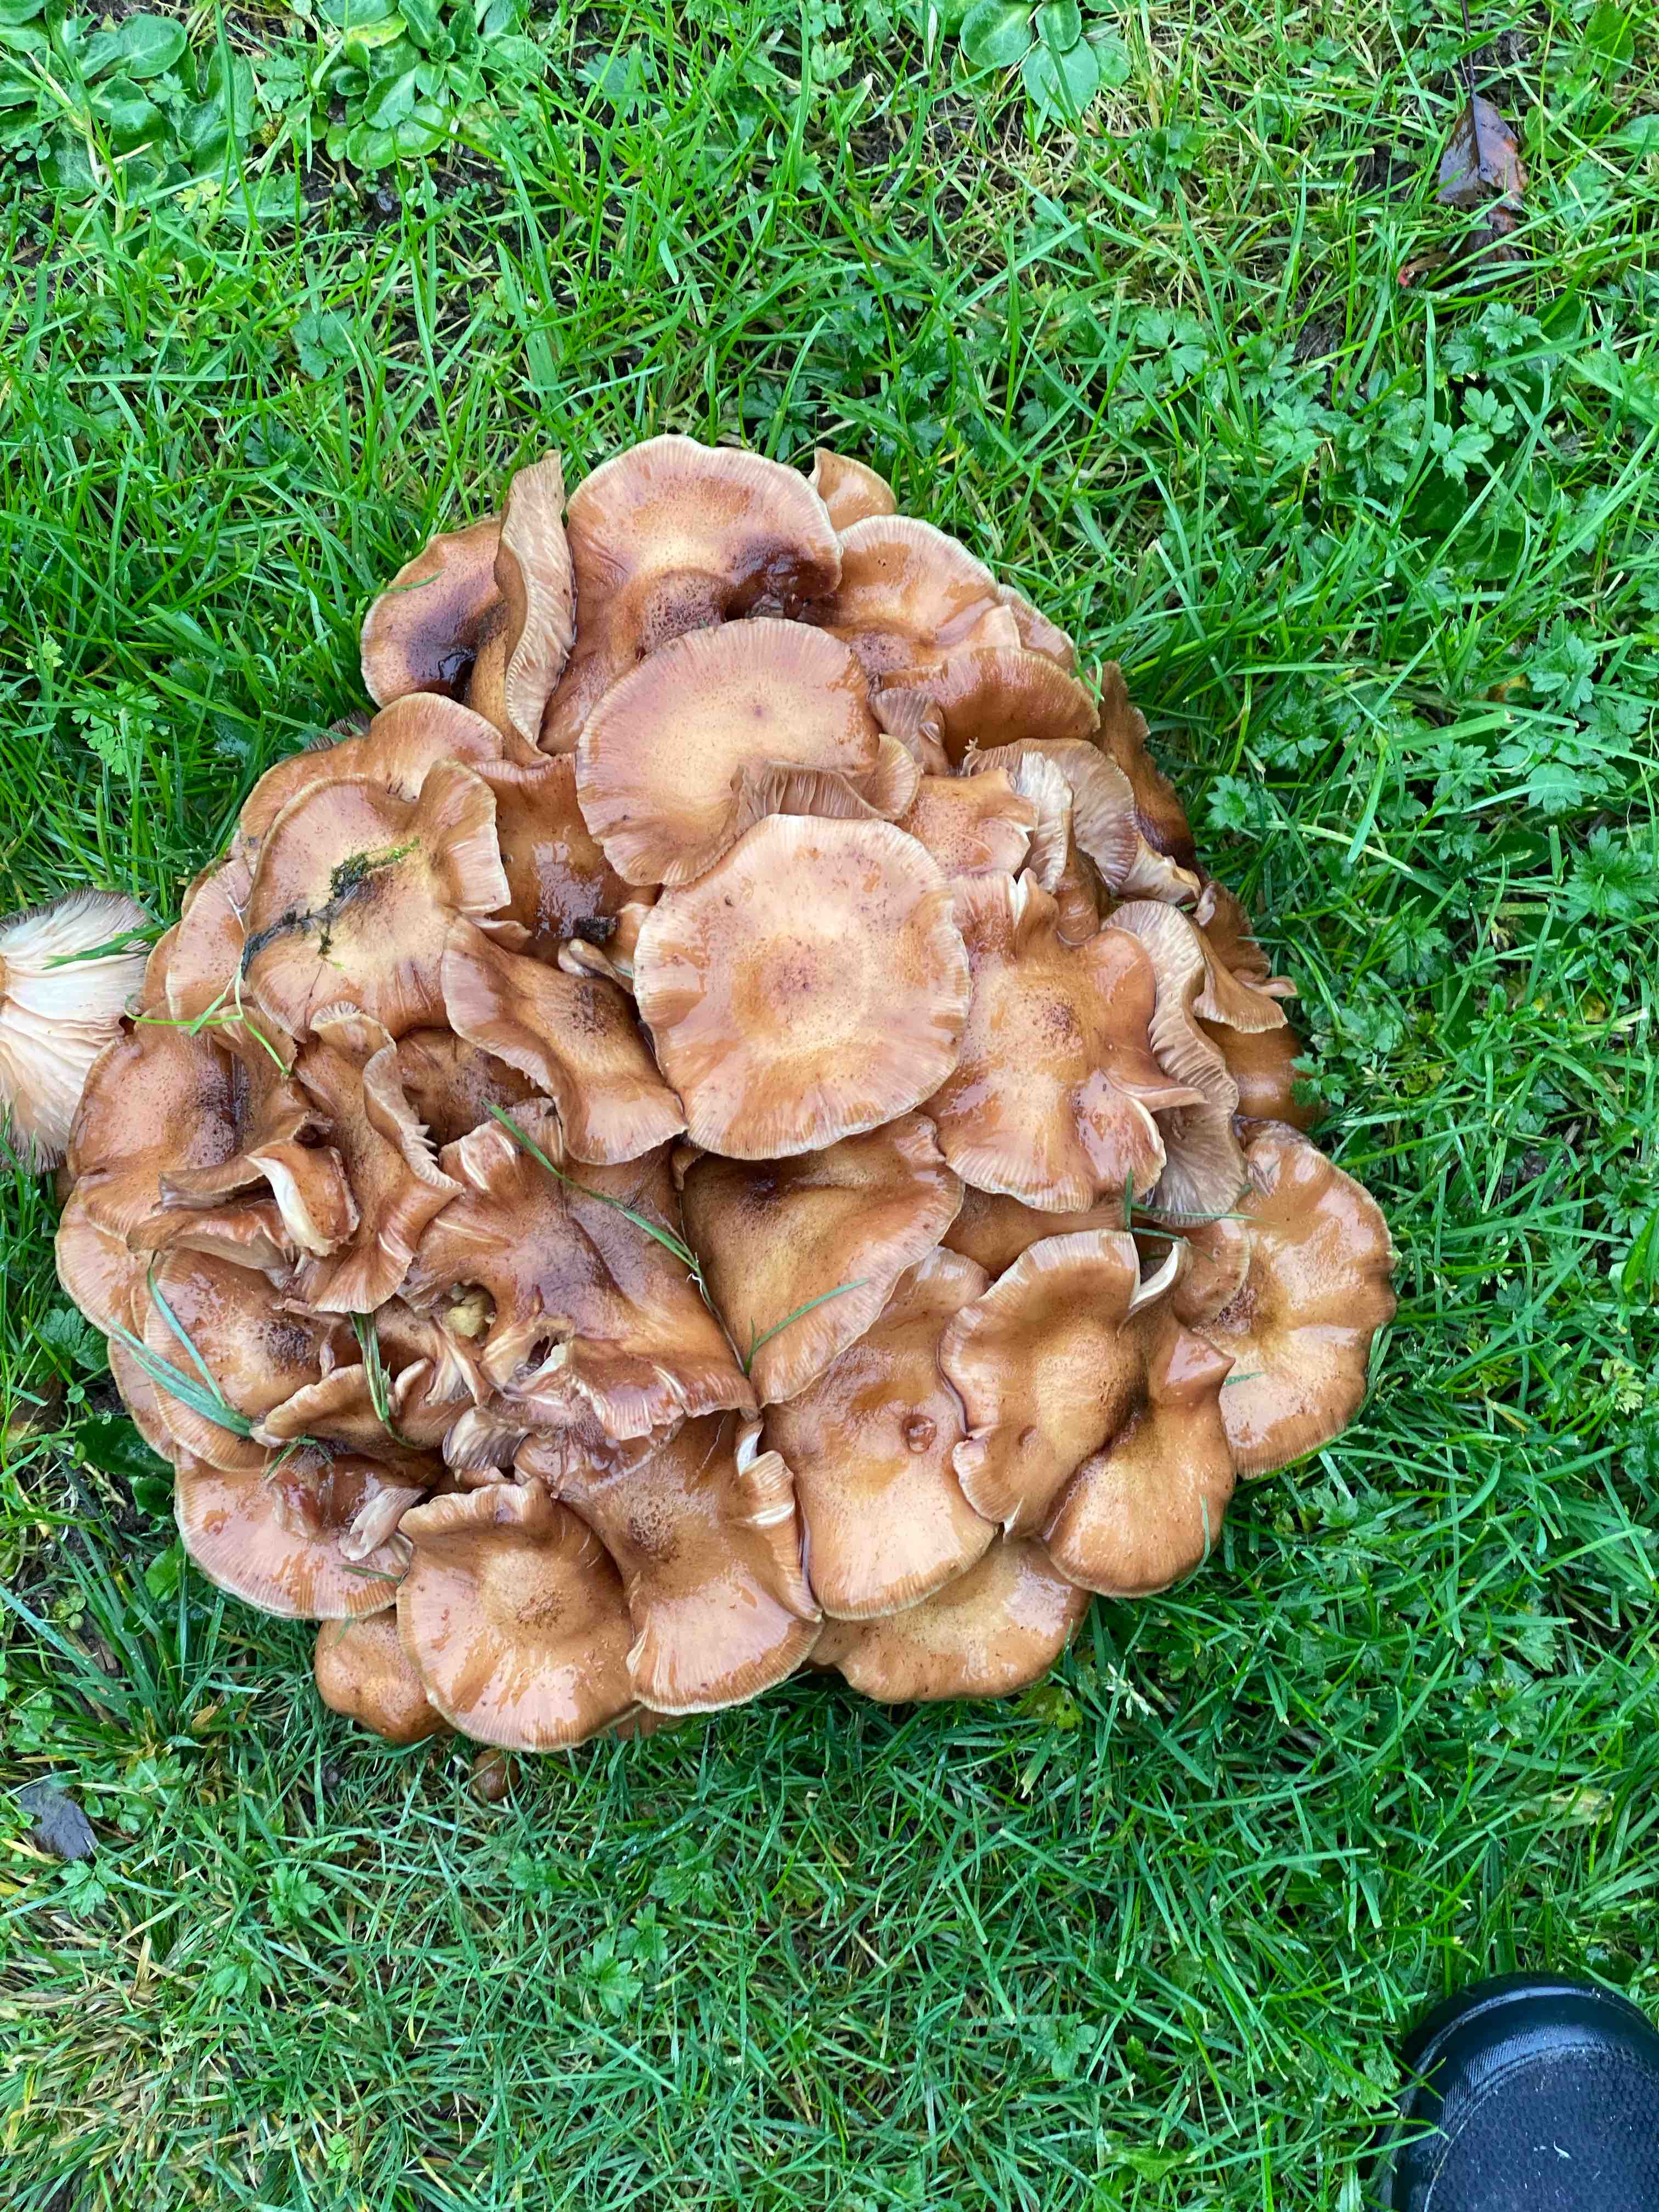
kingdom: Fungi
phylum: Basidiomycota
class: Agaricomycetes
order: Agaricales
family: Physalacriaceae
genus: Armillaria
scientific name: Armillaria lutea
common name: køllestokket honningsvamp
